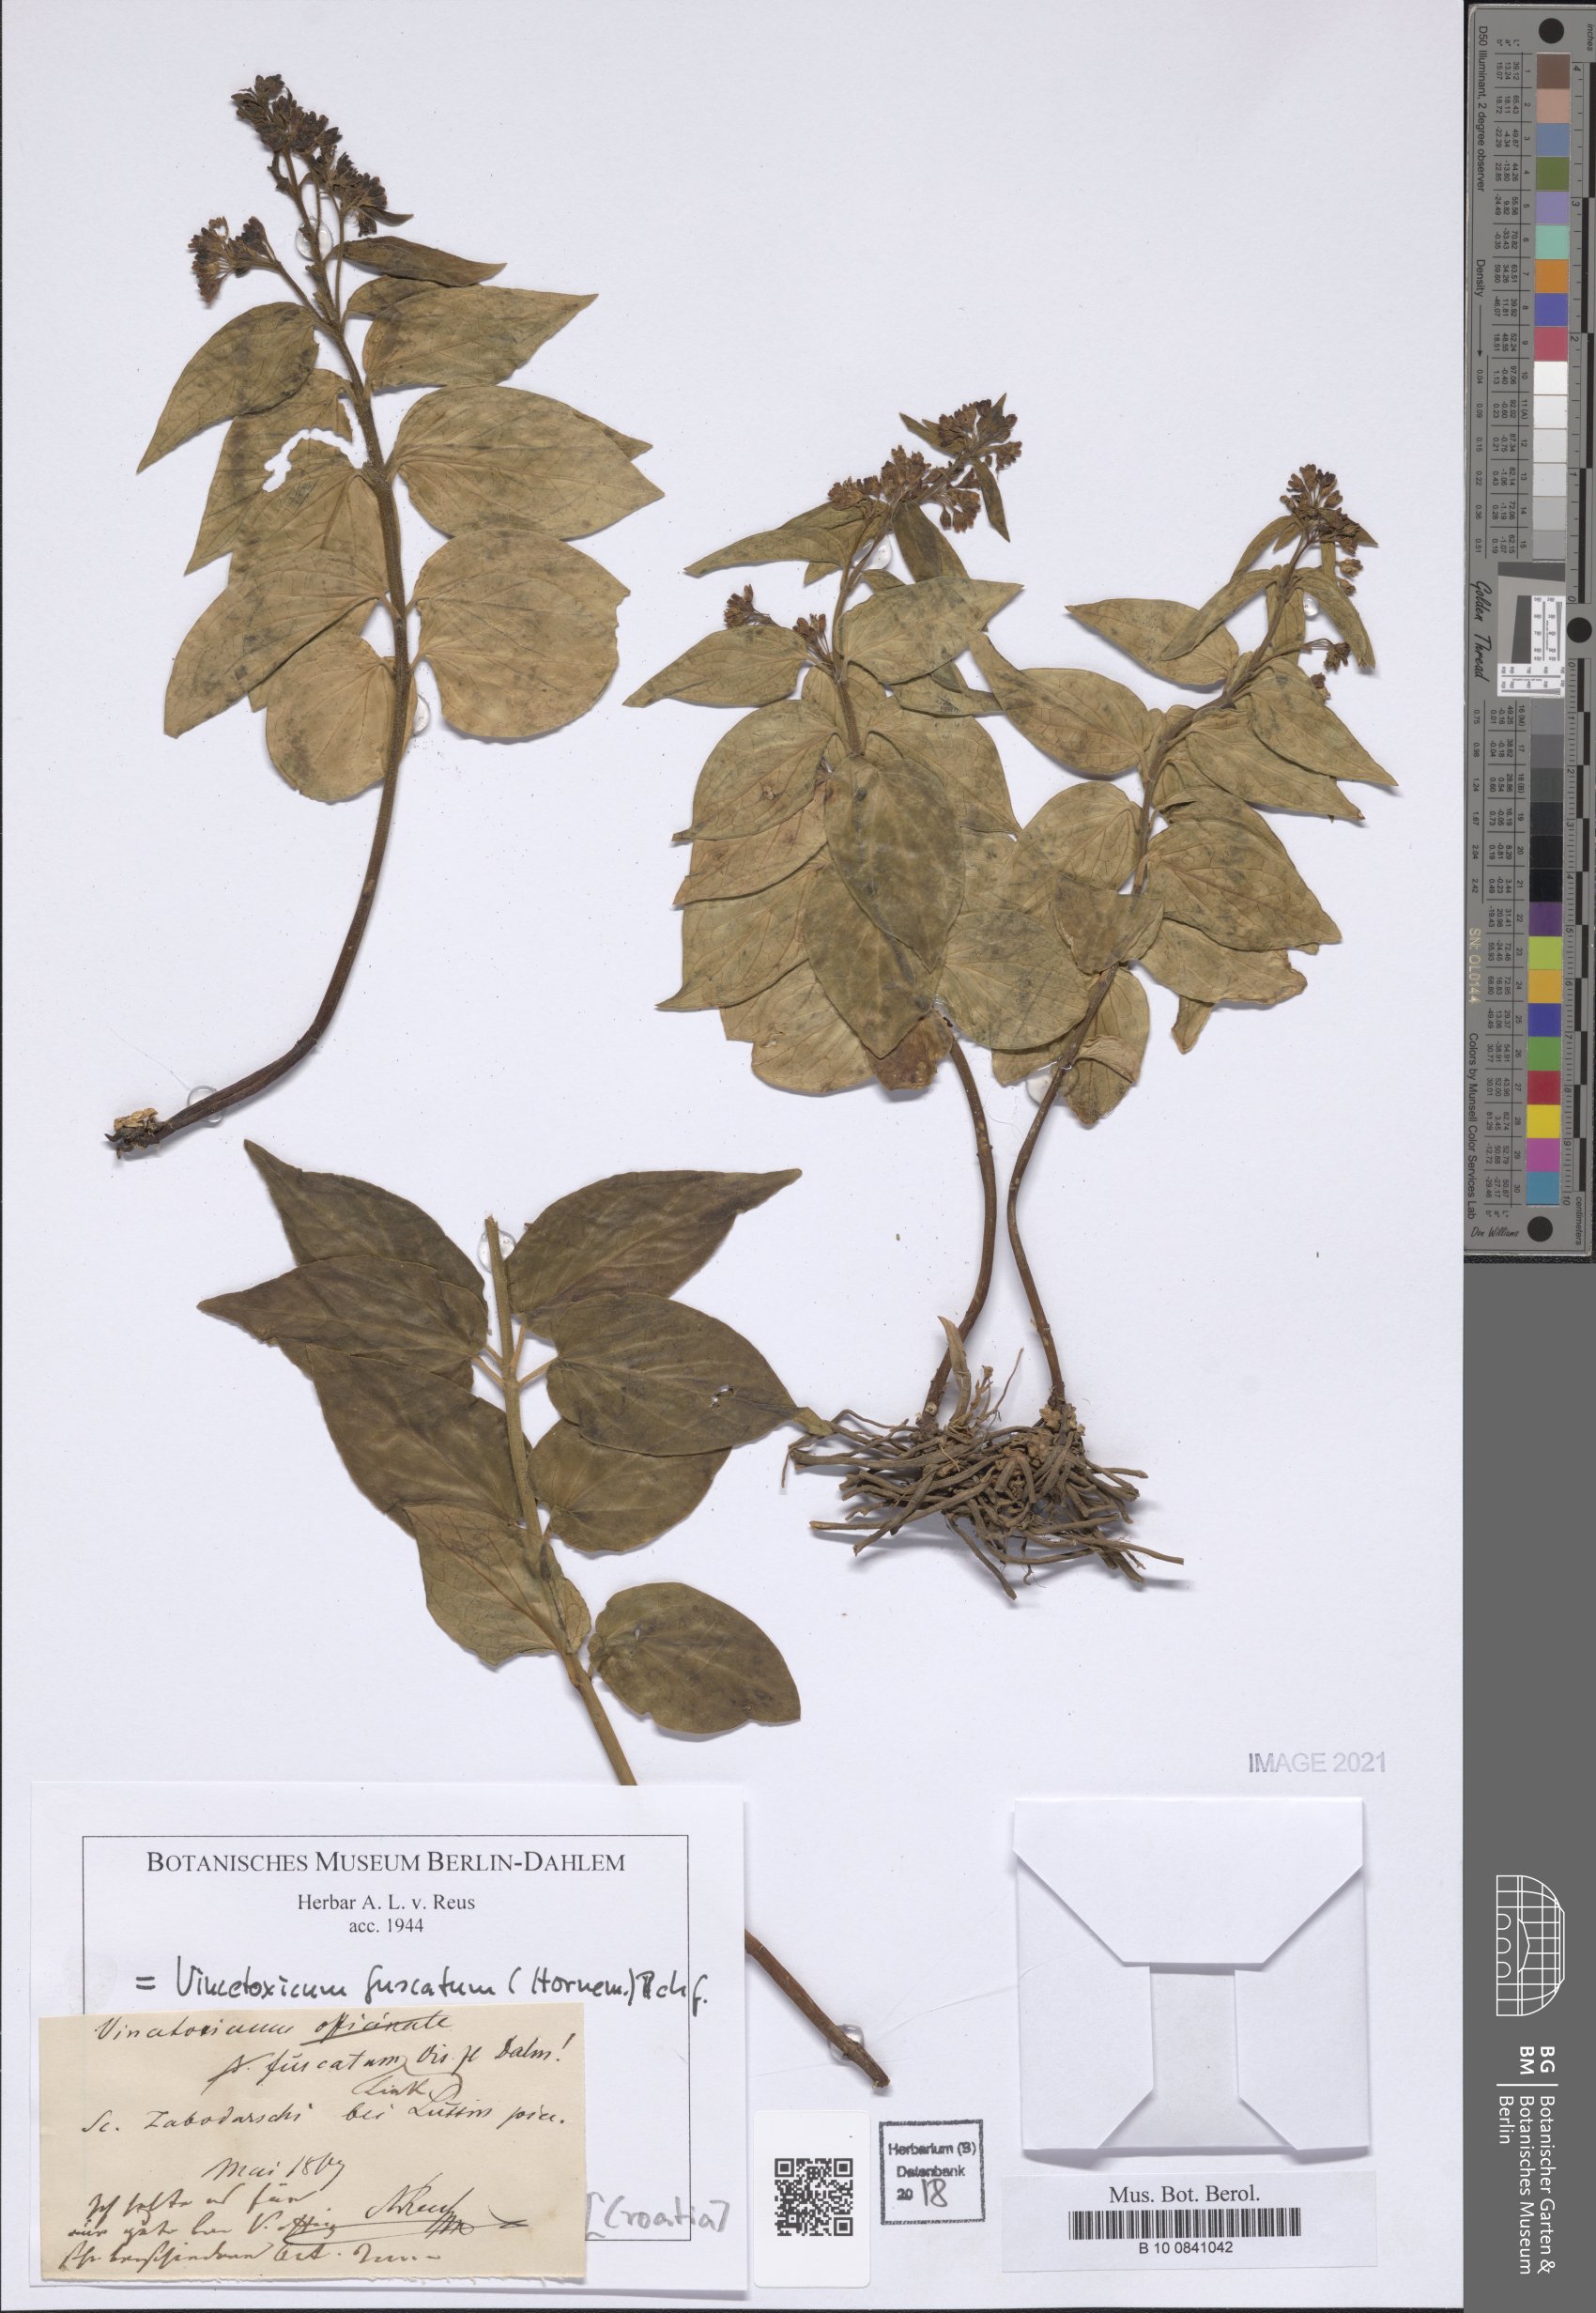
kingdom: Plantae
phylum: Tracheophyta
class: Magnoliopsida
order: Gentianales
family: Apocynaceae
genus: Vincetoxicum
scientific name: Vincetoxicum fuscatum
